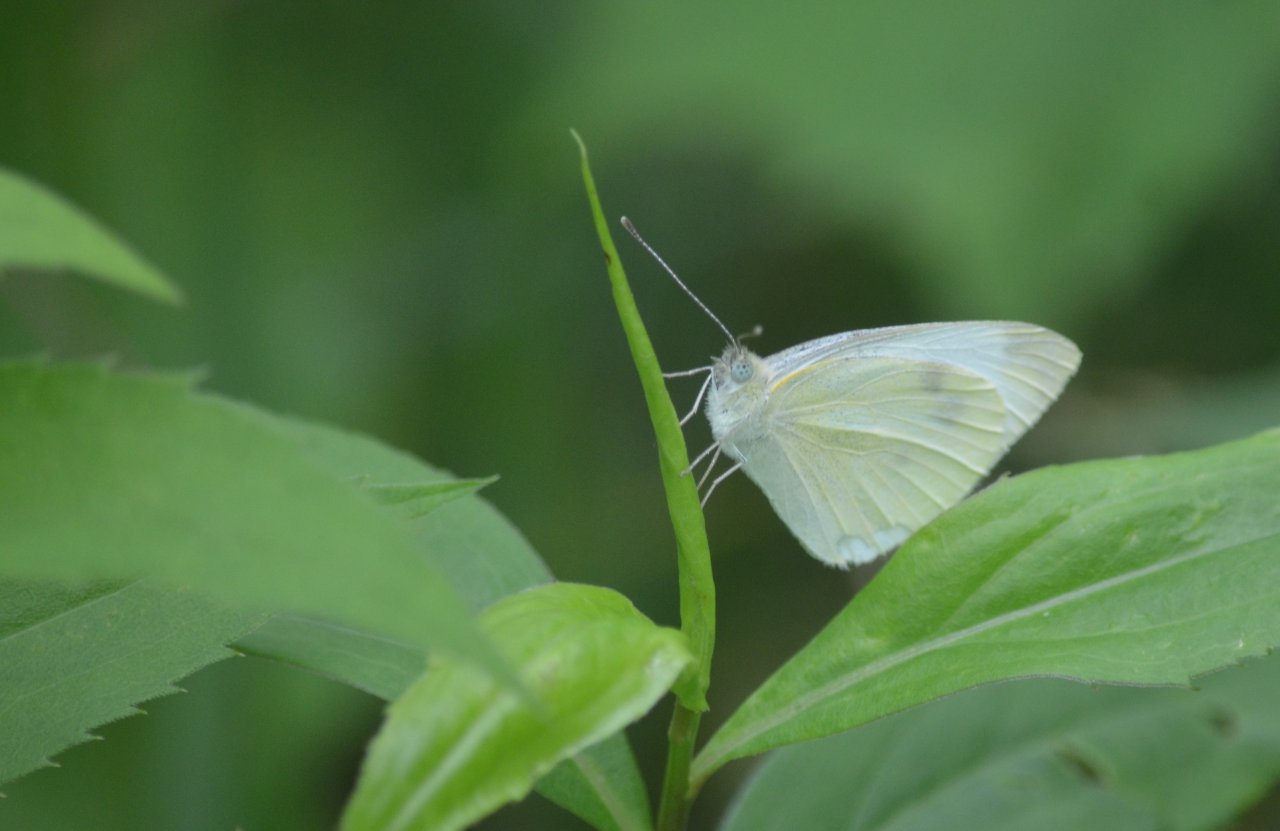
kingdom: Animalia
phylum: Arthropoda
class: Insecta
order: Lepidoptera
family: Pieridae
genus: Pieris
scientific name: Pieris rapae
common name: Cabbage White
